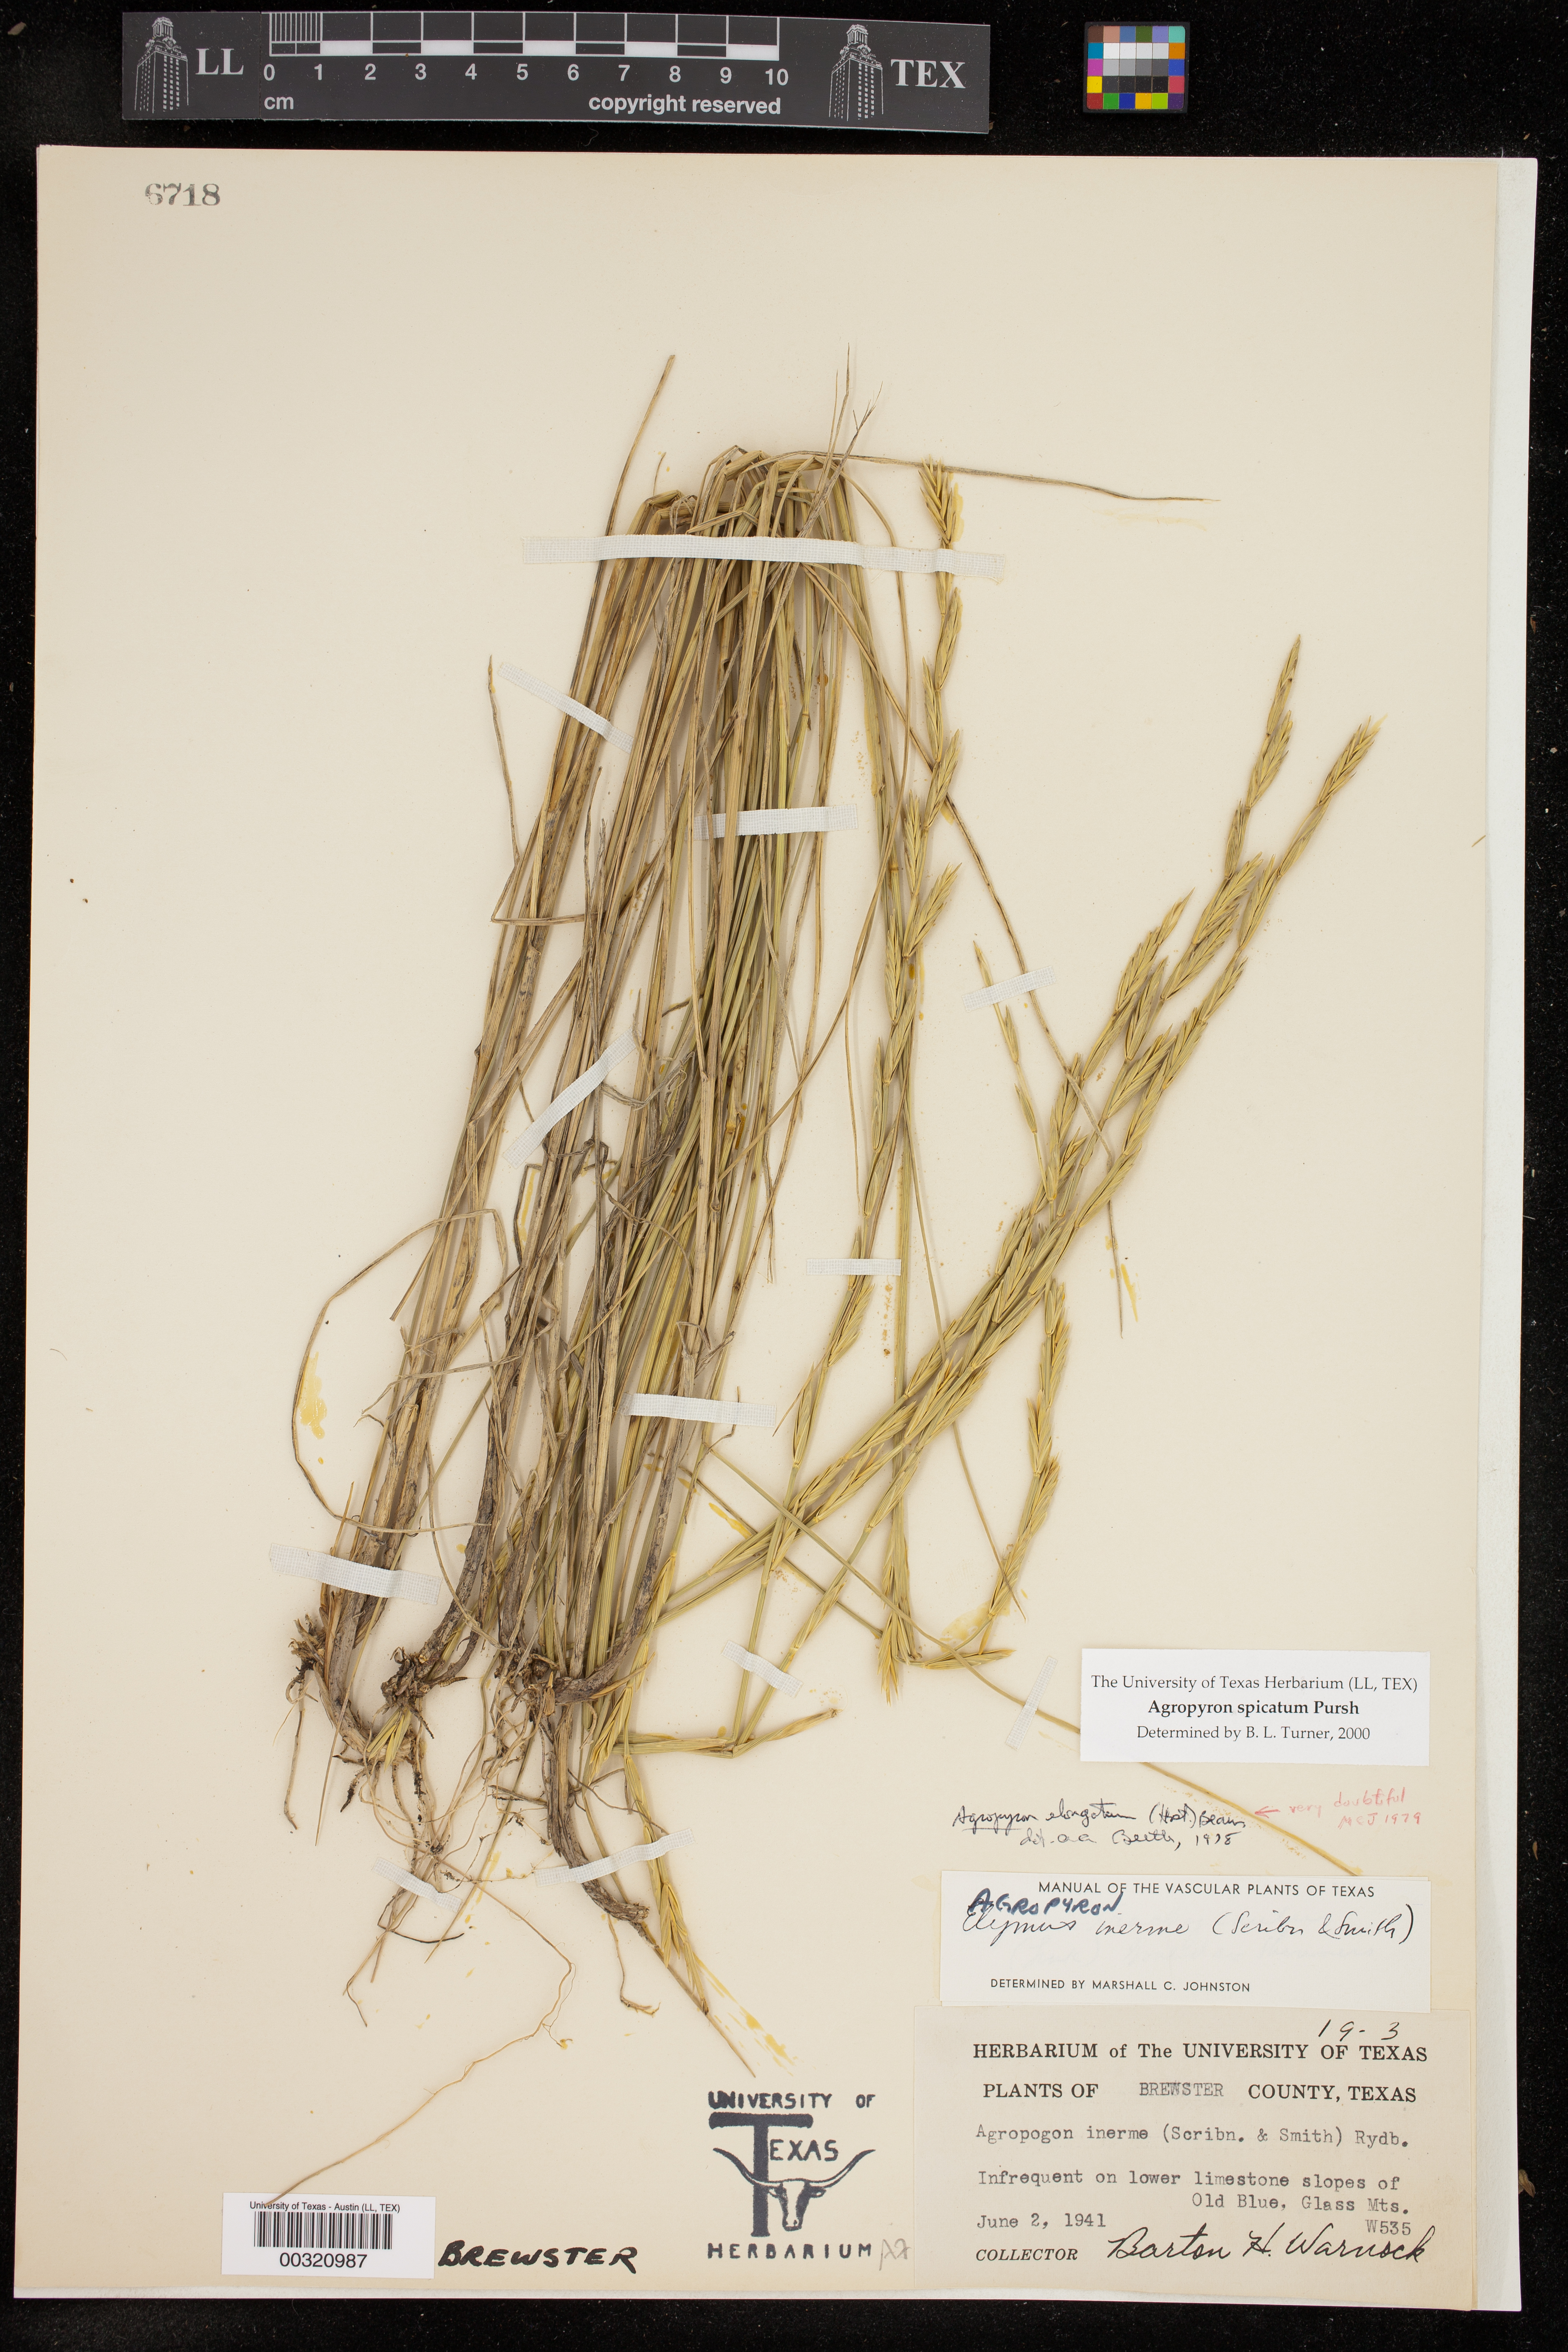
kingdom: Plantae
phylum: Tracheophyta
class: Liliopsida
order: Poales
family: Poaceae
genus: Pseudoroegneria
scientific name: Pseudoroegneria spicata
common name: Bluebunch wheatgrass
